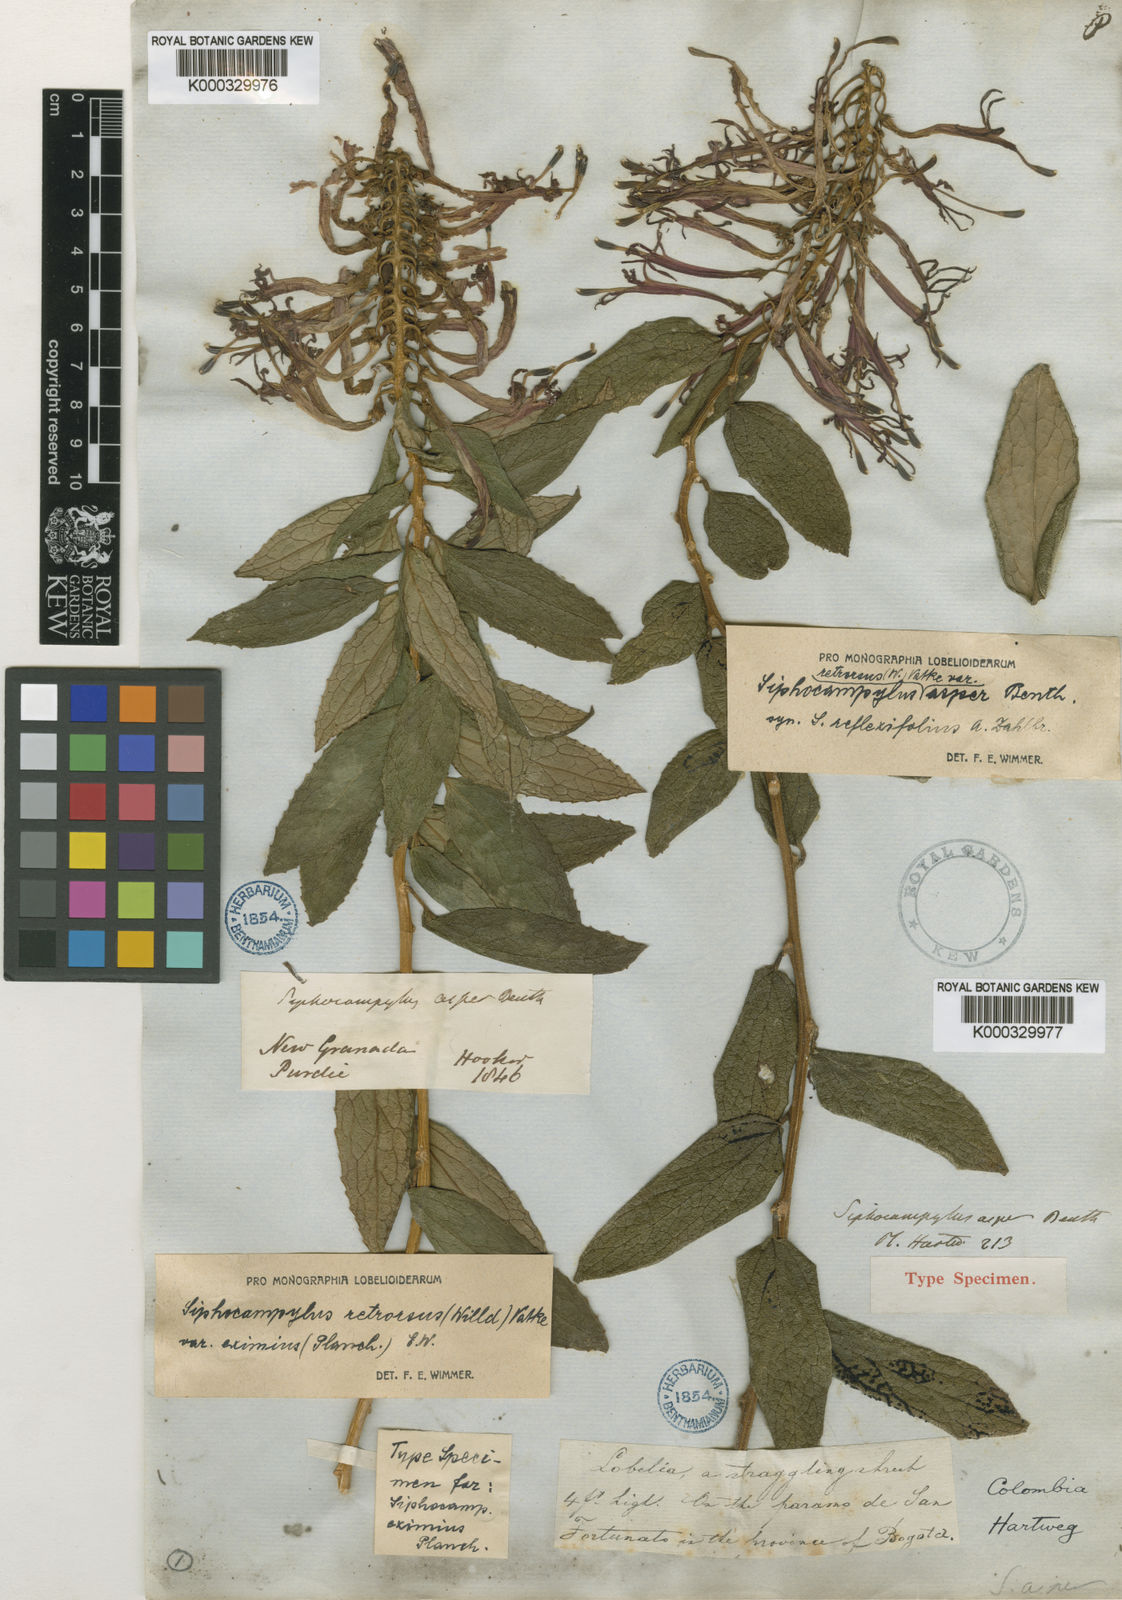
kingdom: Plantae
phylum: Tracheophyta
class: Magnoliopsida
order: Asterales
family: Campanulaceae
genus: Siphocampylus
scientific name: Siphocampylus retrorsus
